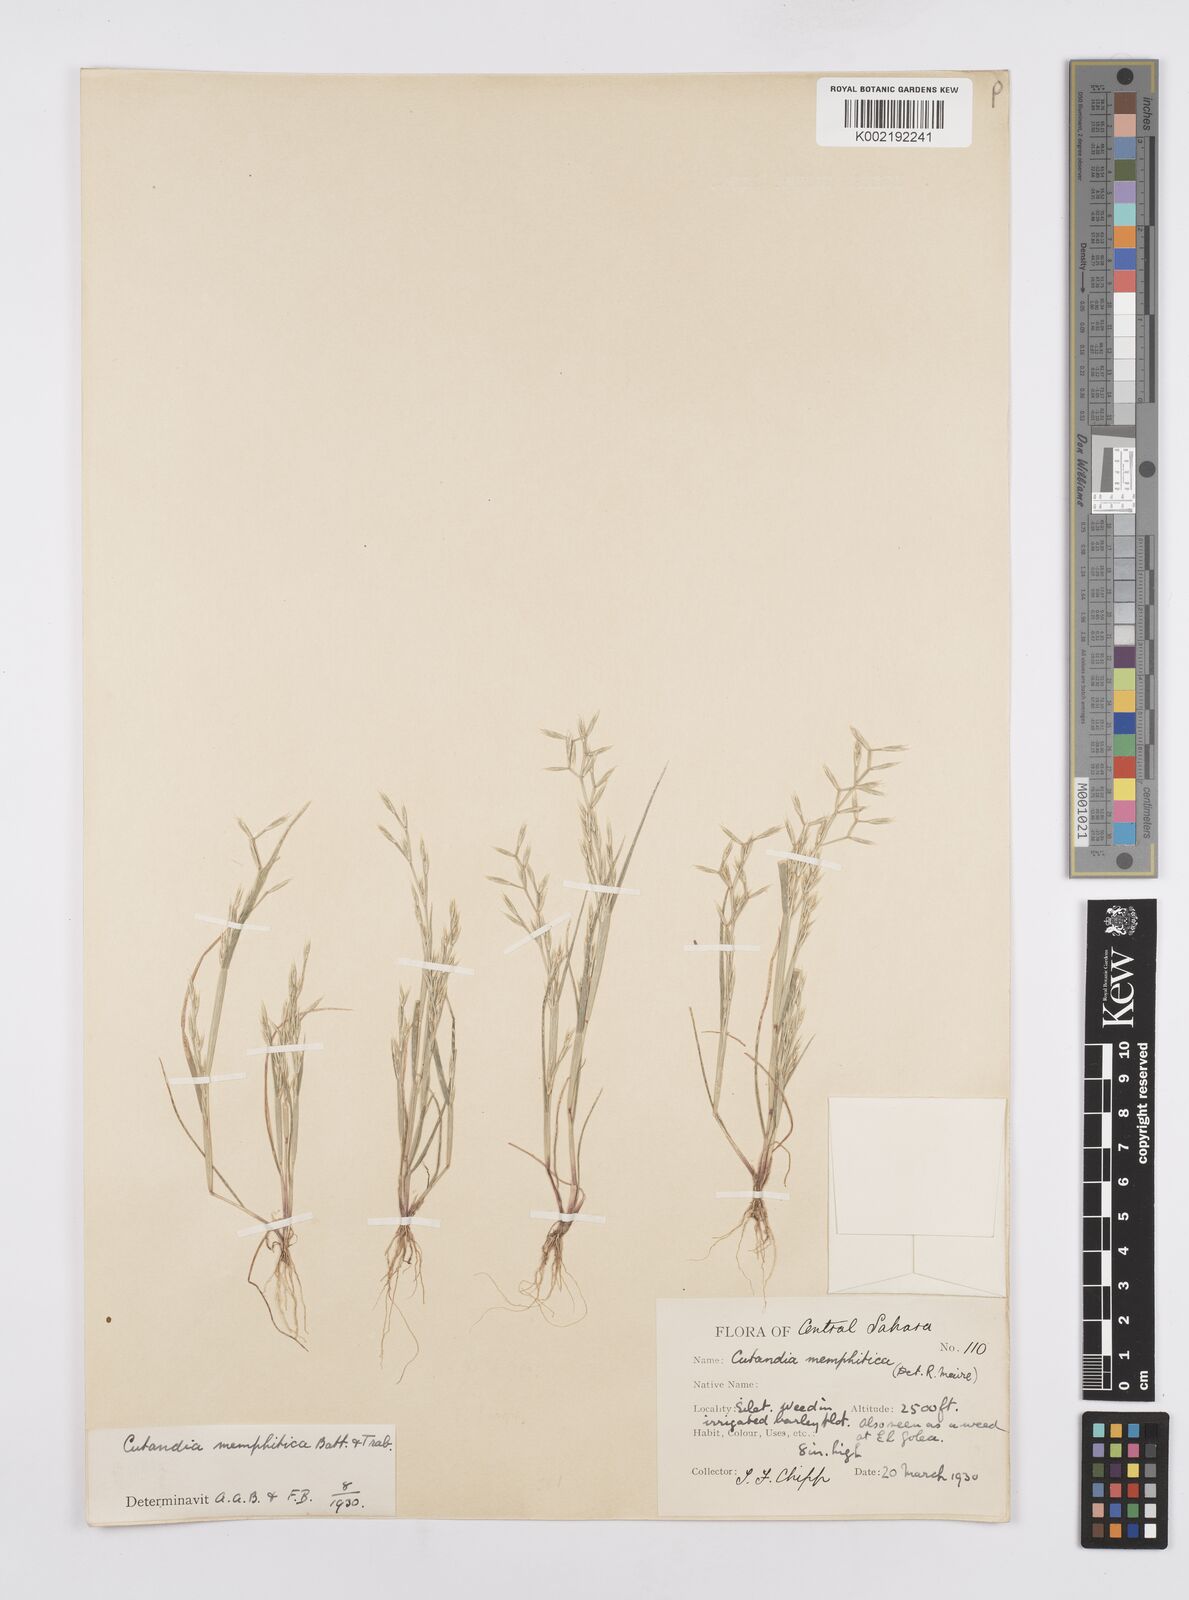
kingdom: Plantae
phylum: Tracheophyta
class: Liliopsida
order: Poales
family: Poaceae
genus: Cutandia
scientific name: Cutandia memphitica
